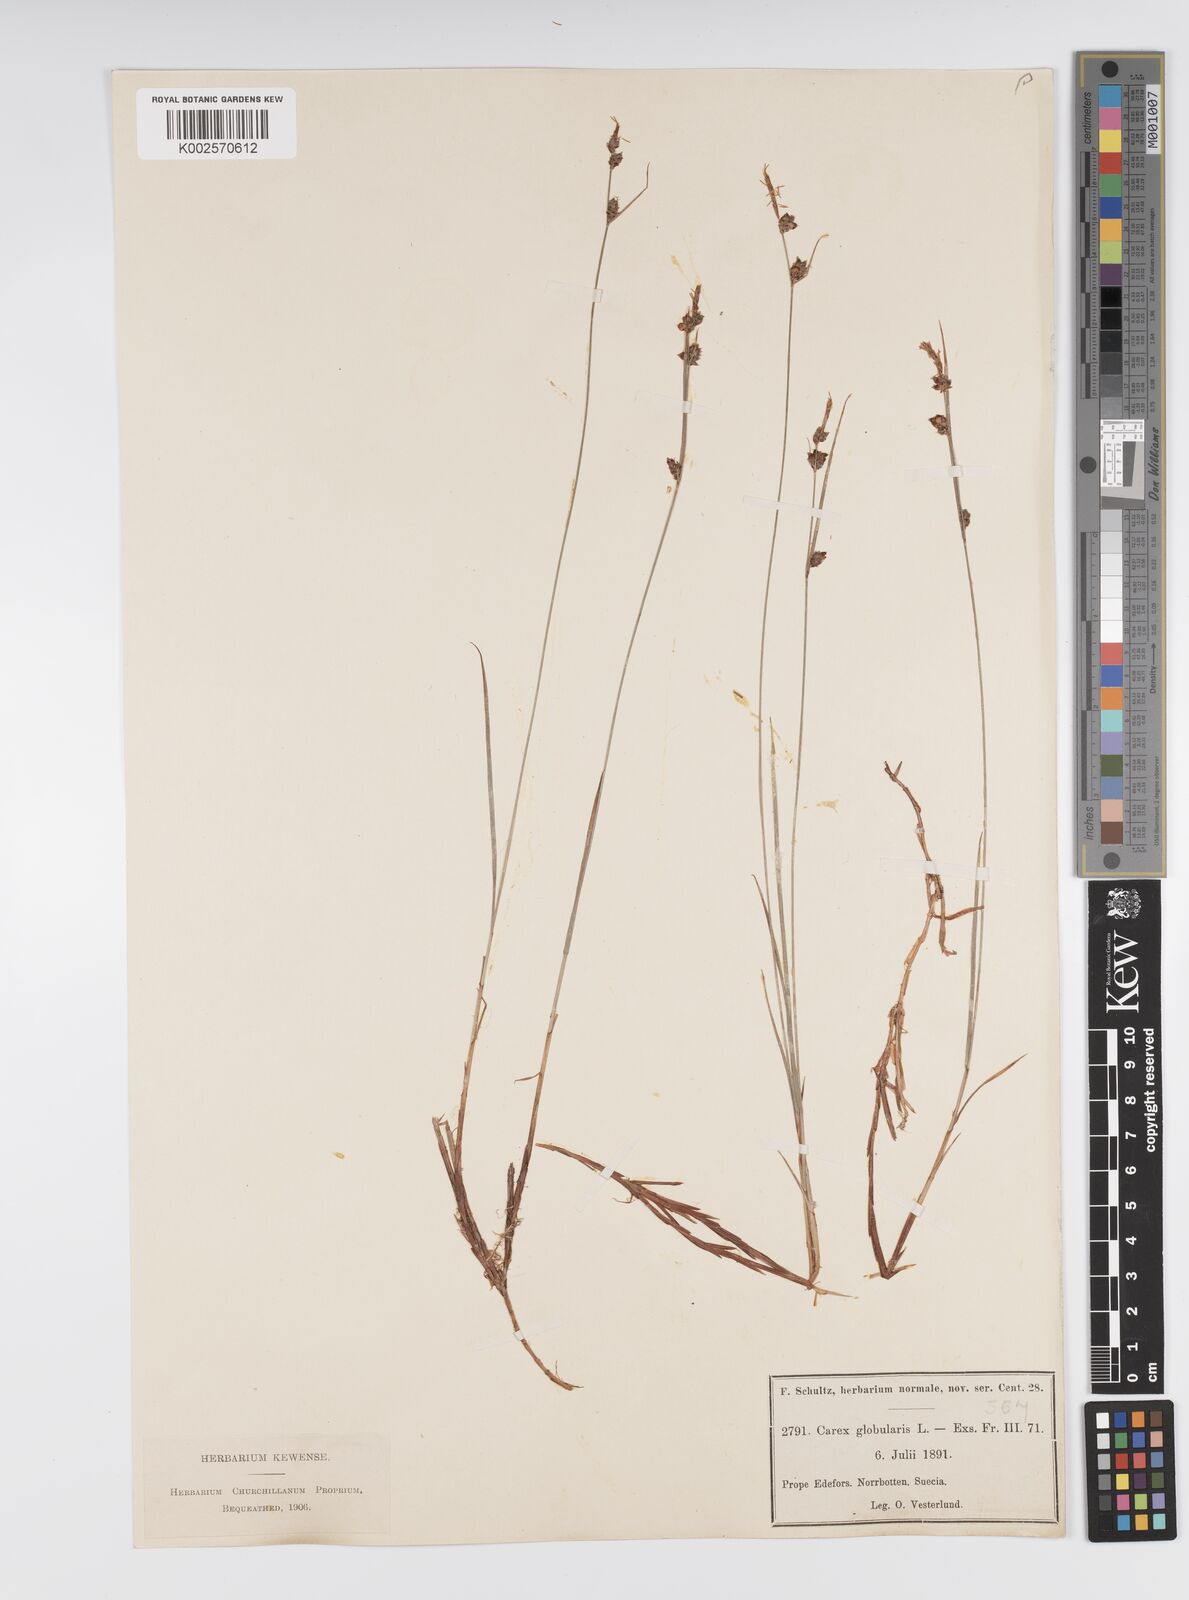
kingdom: Plantae
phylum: Tracheophyta
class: Liliopsida
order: Poales
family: Cyperaceae
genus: Carex
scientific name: Carex globularis
